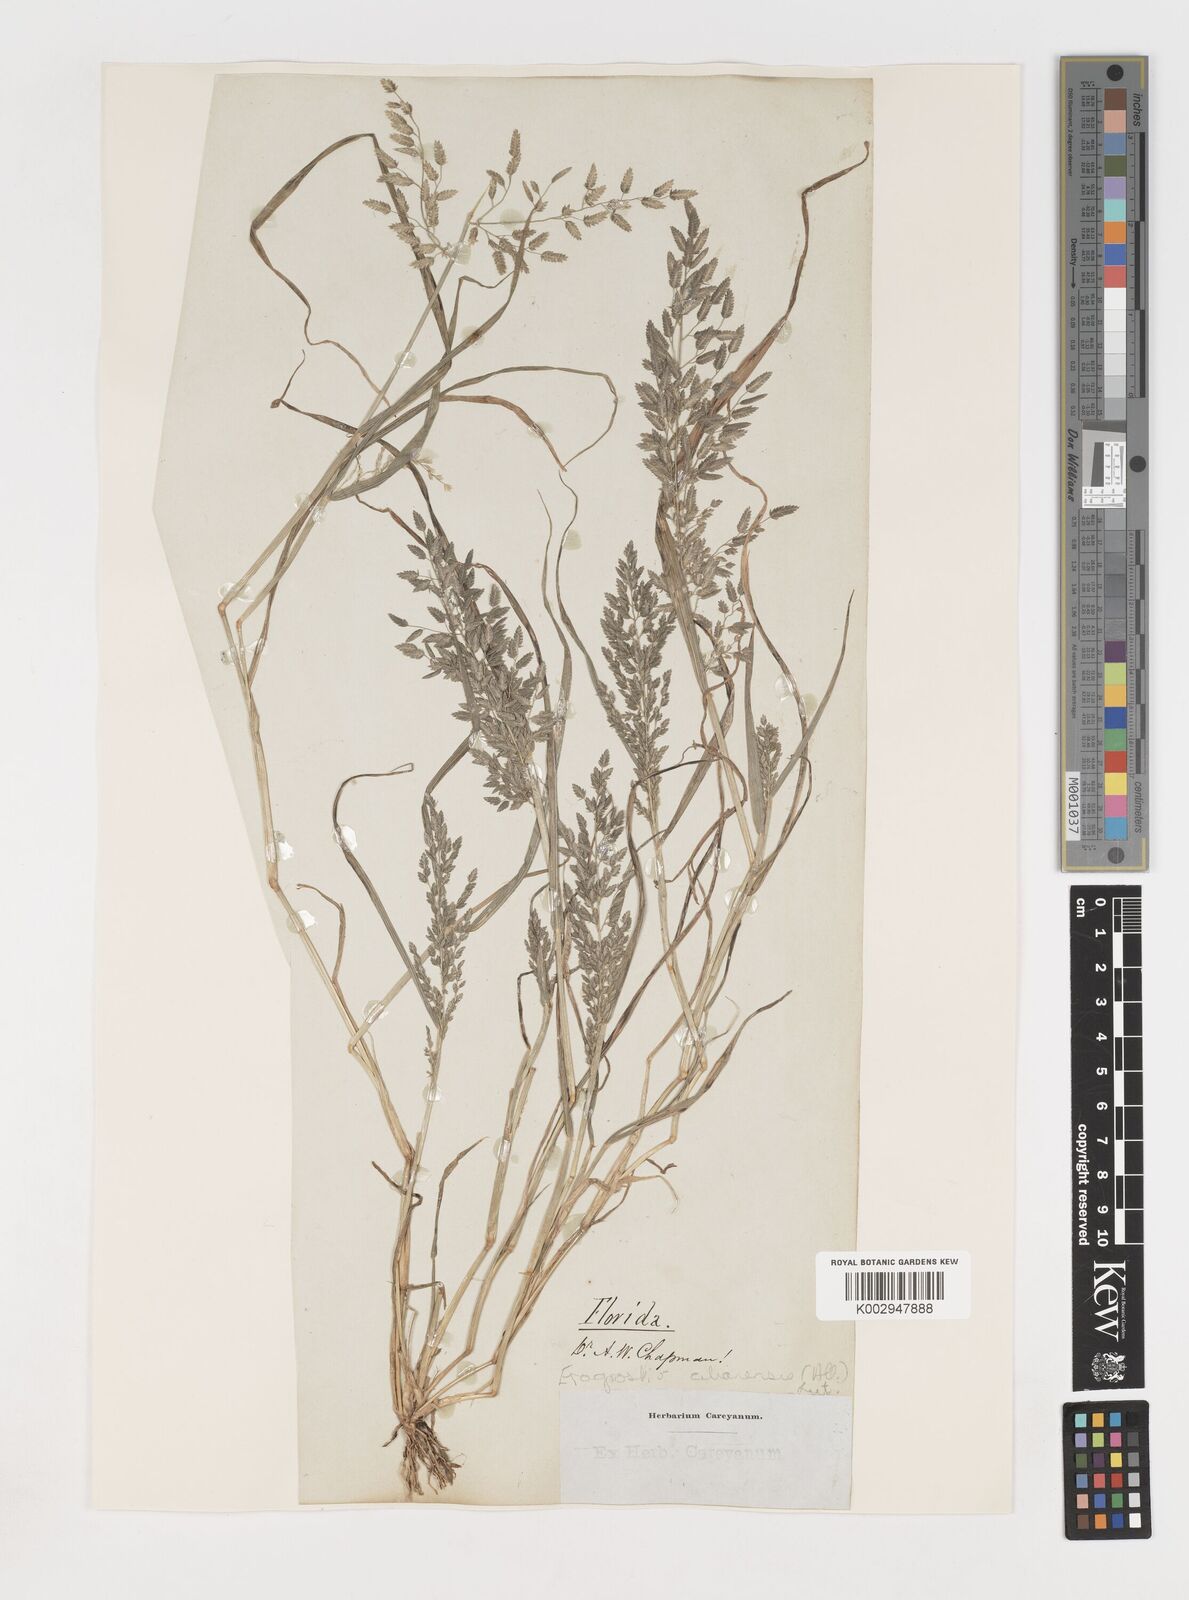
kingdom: Plantae
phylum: Tracheophyta
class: Liliopsida
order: Poales
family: Poaceae
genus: Eragrostis
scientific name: Eragrostis cilianensis
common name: Stinkgrass
